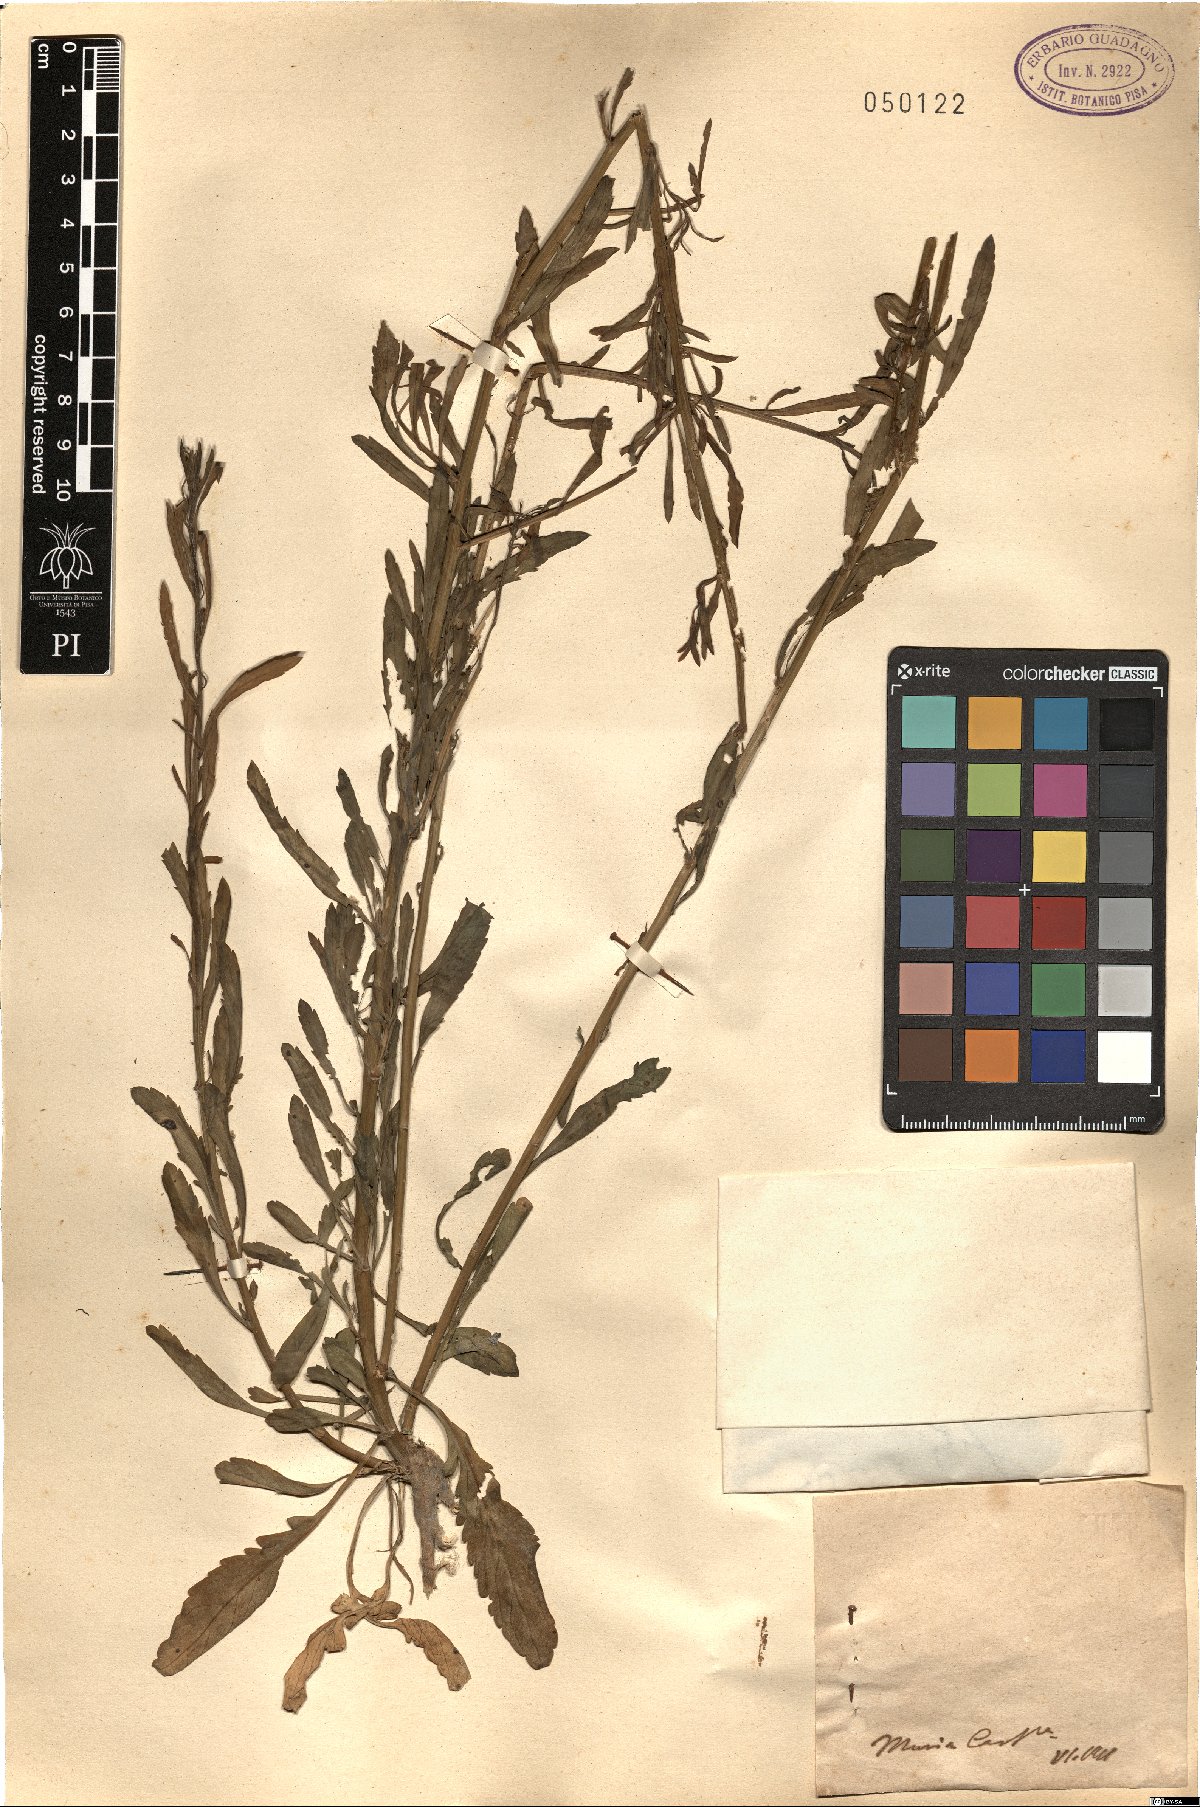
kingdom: Plantae
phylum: Tracheophyta
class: Magnoliopsida
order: Brassicales
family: Brassicaceae
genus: Lepidium
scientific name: Lepidium
